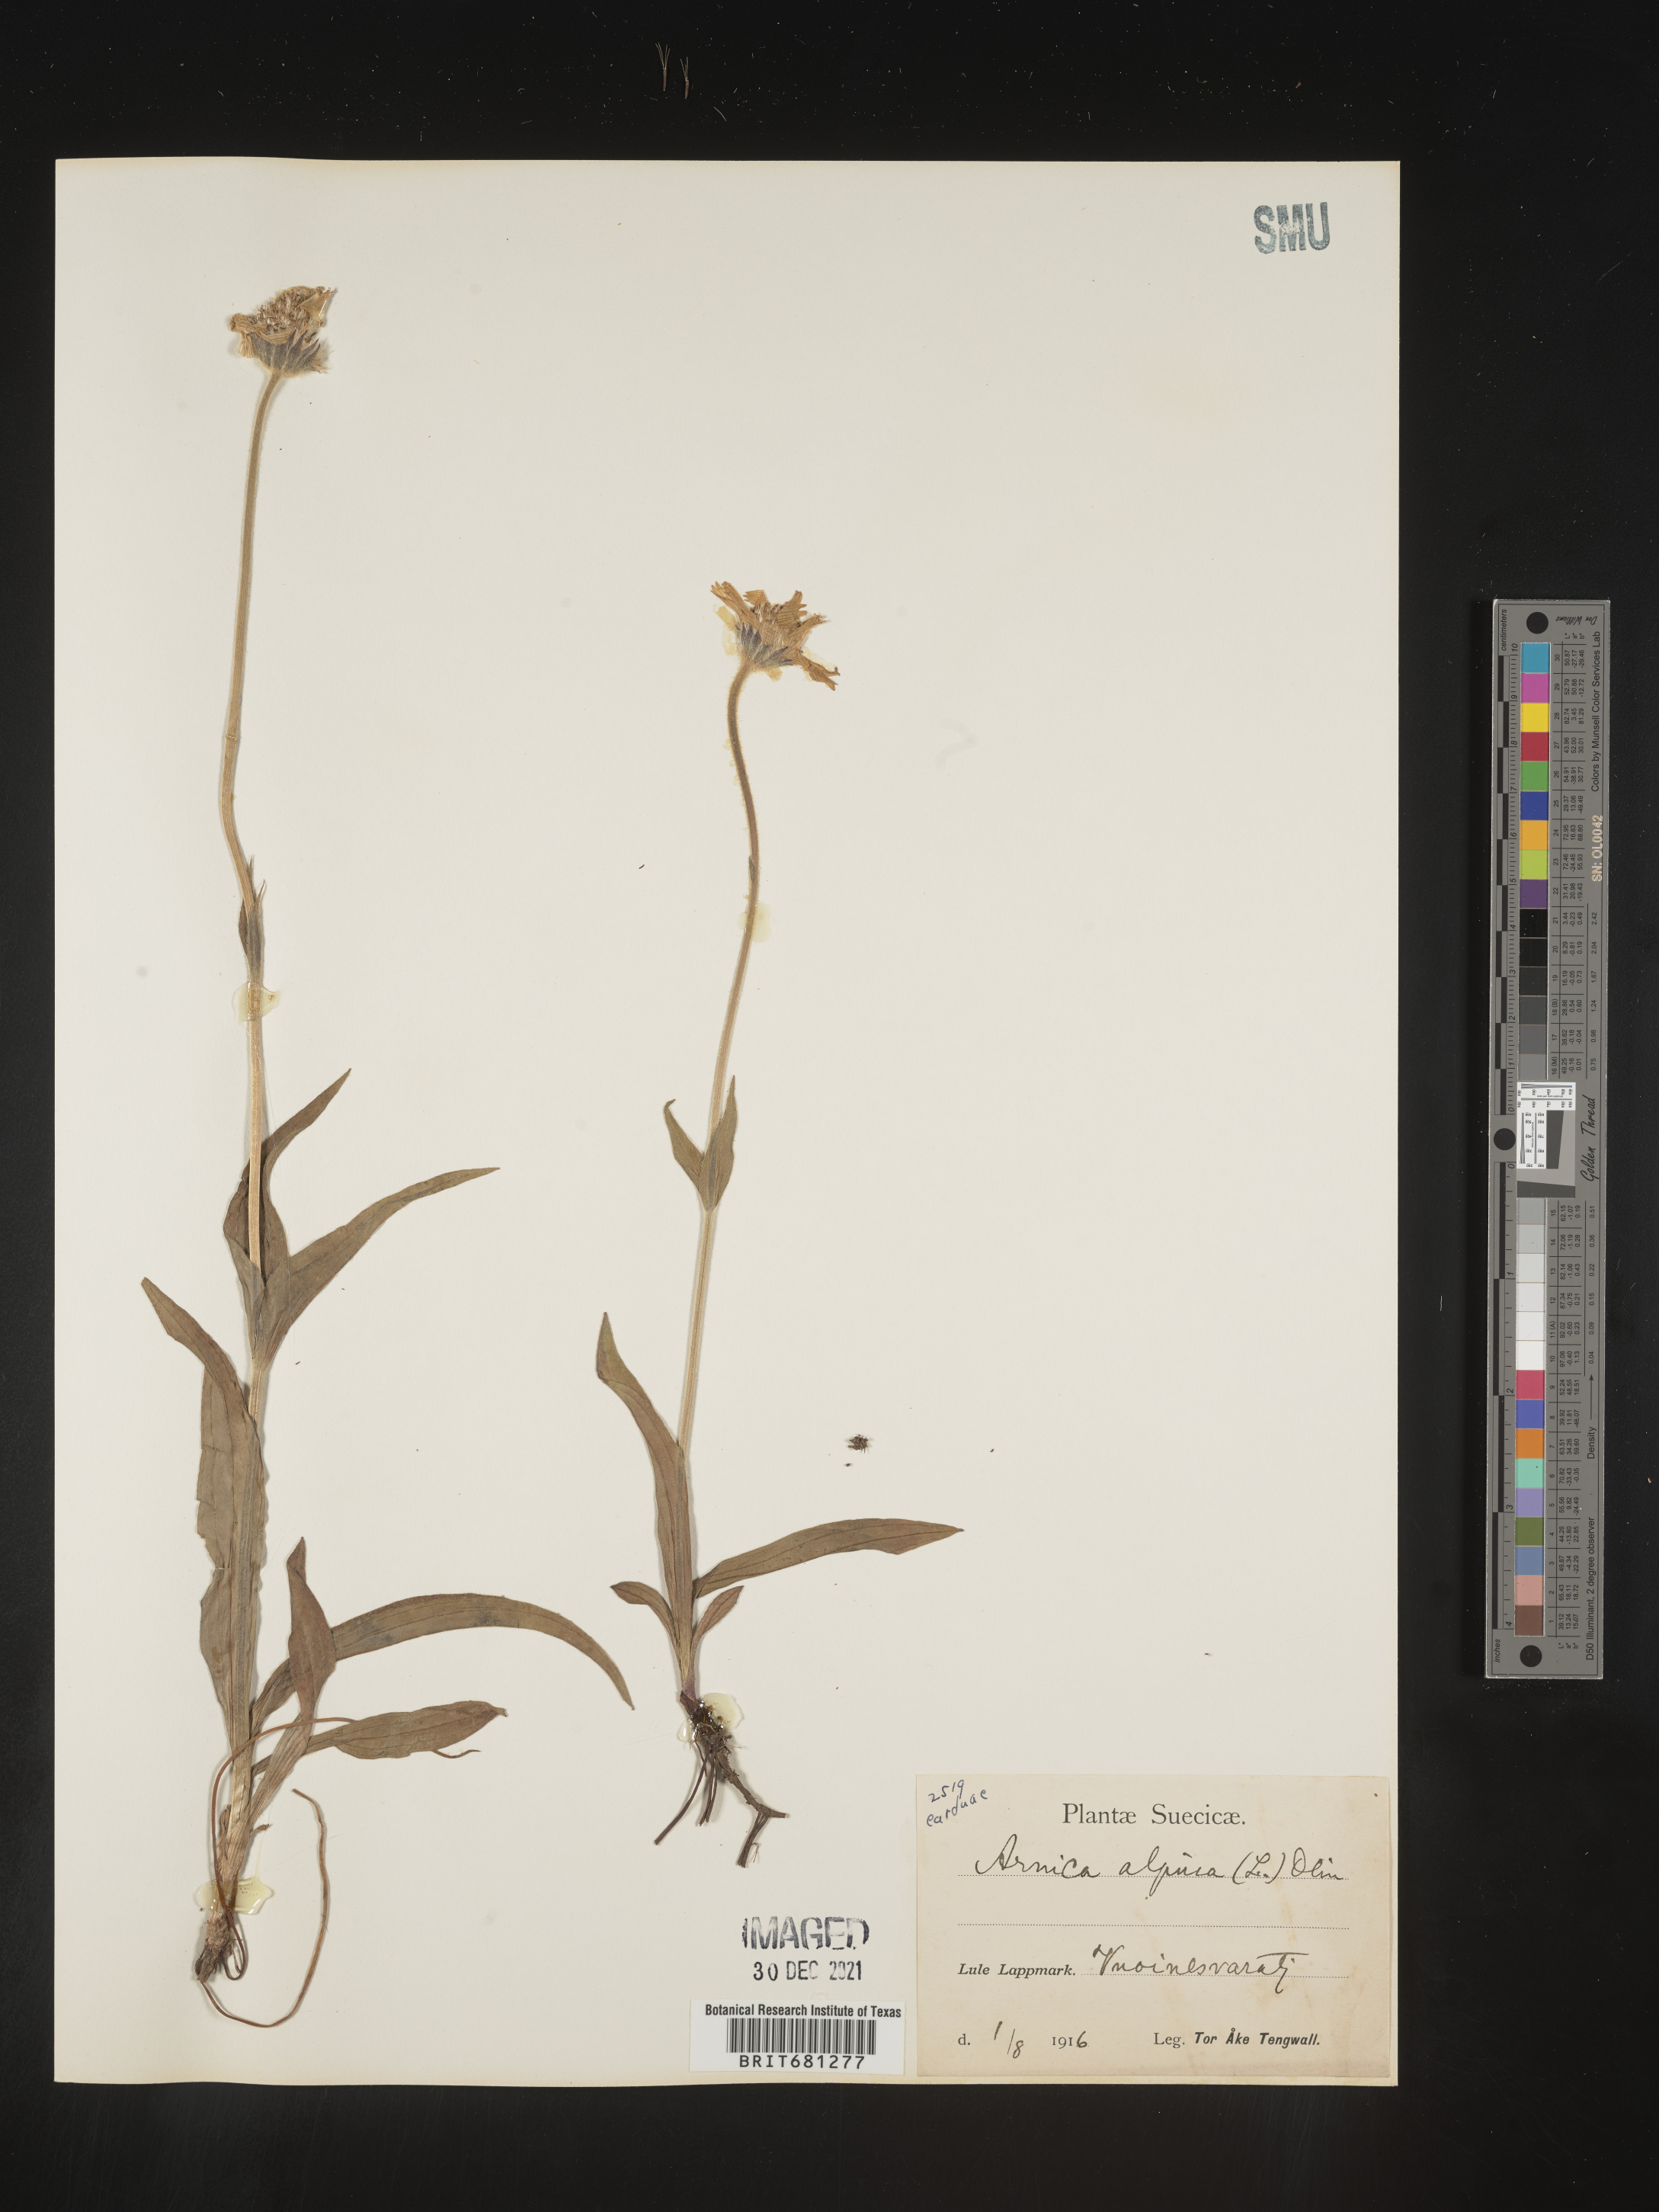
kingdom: Plantae
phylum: Tracheophyta
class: Magnoliopsida
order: Asterales
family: Asteraceae
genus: Arnica
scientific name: Arnica
